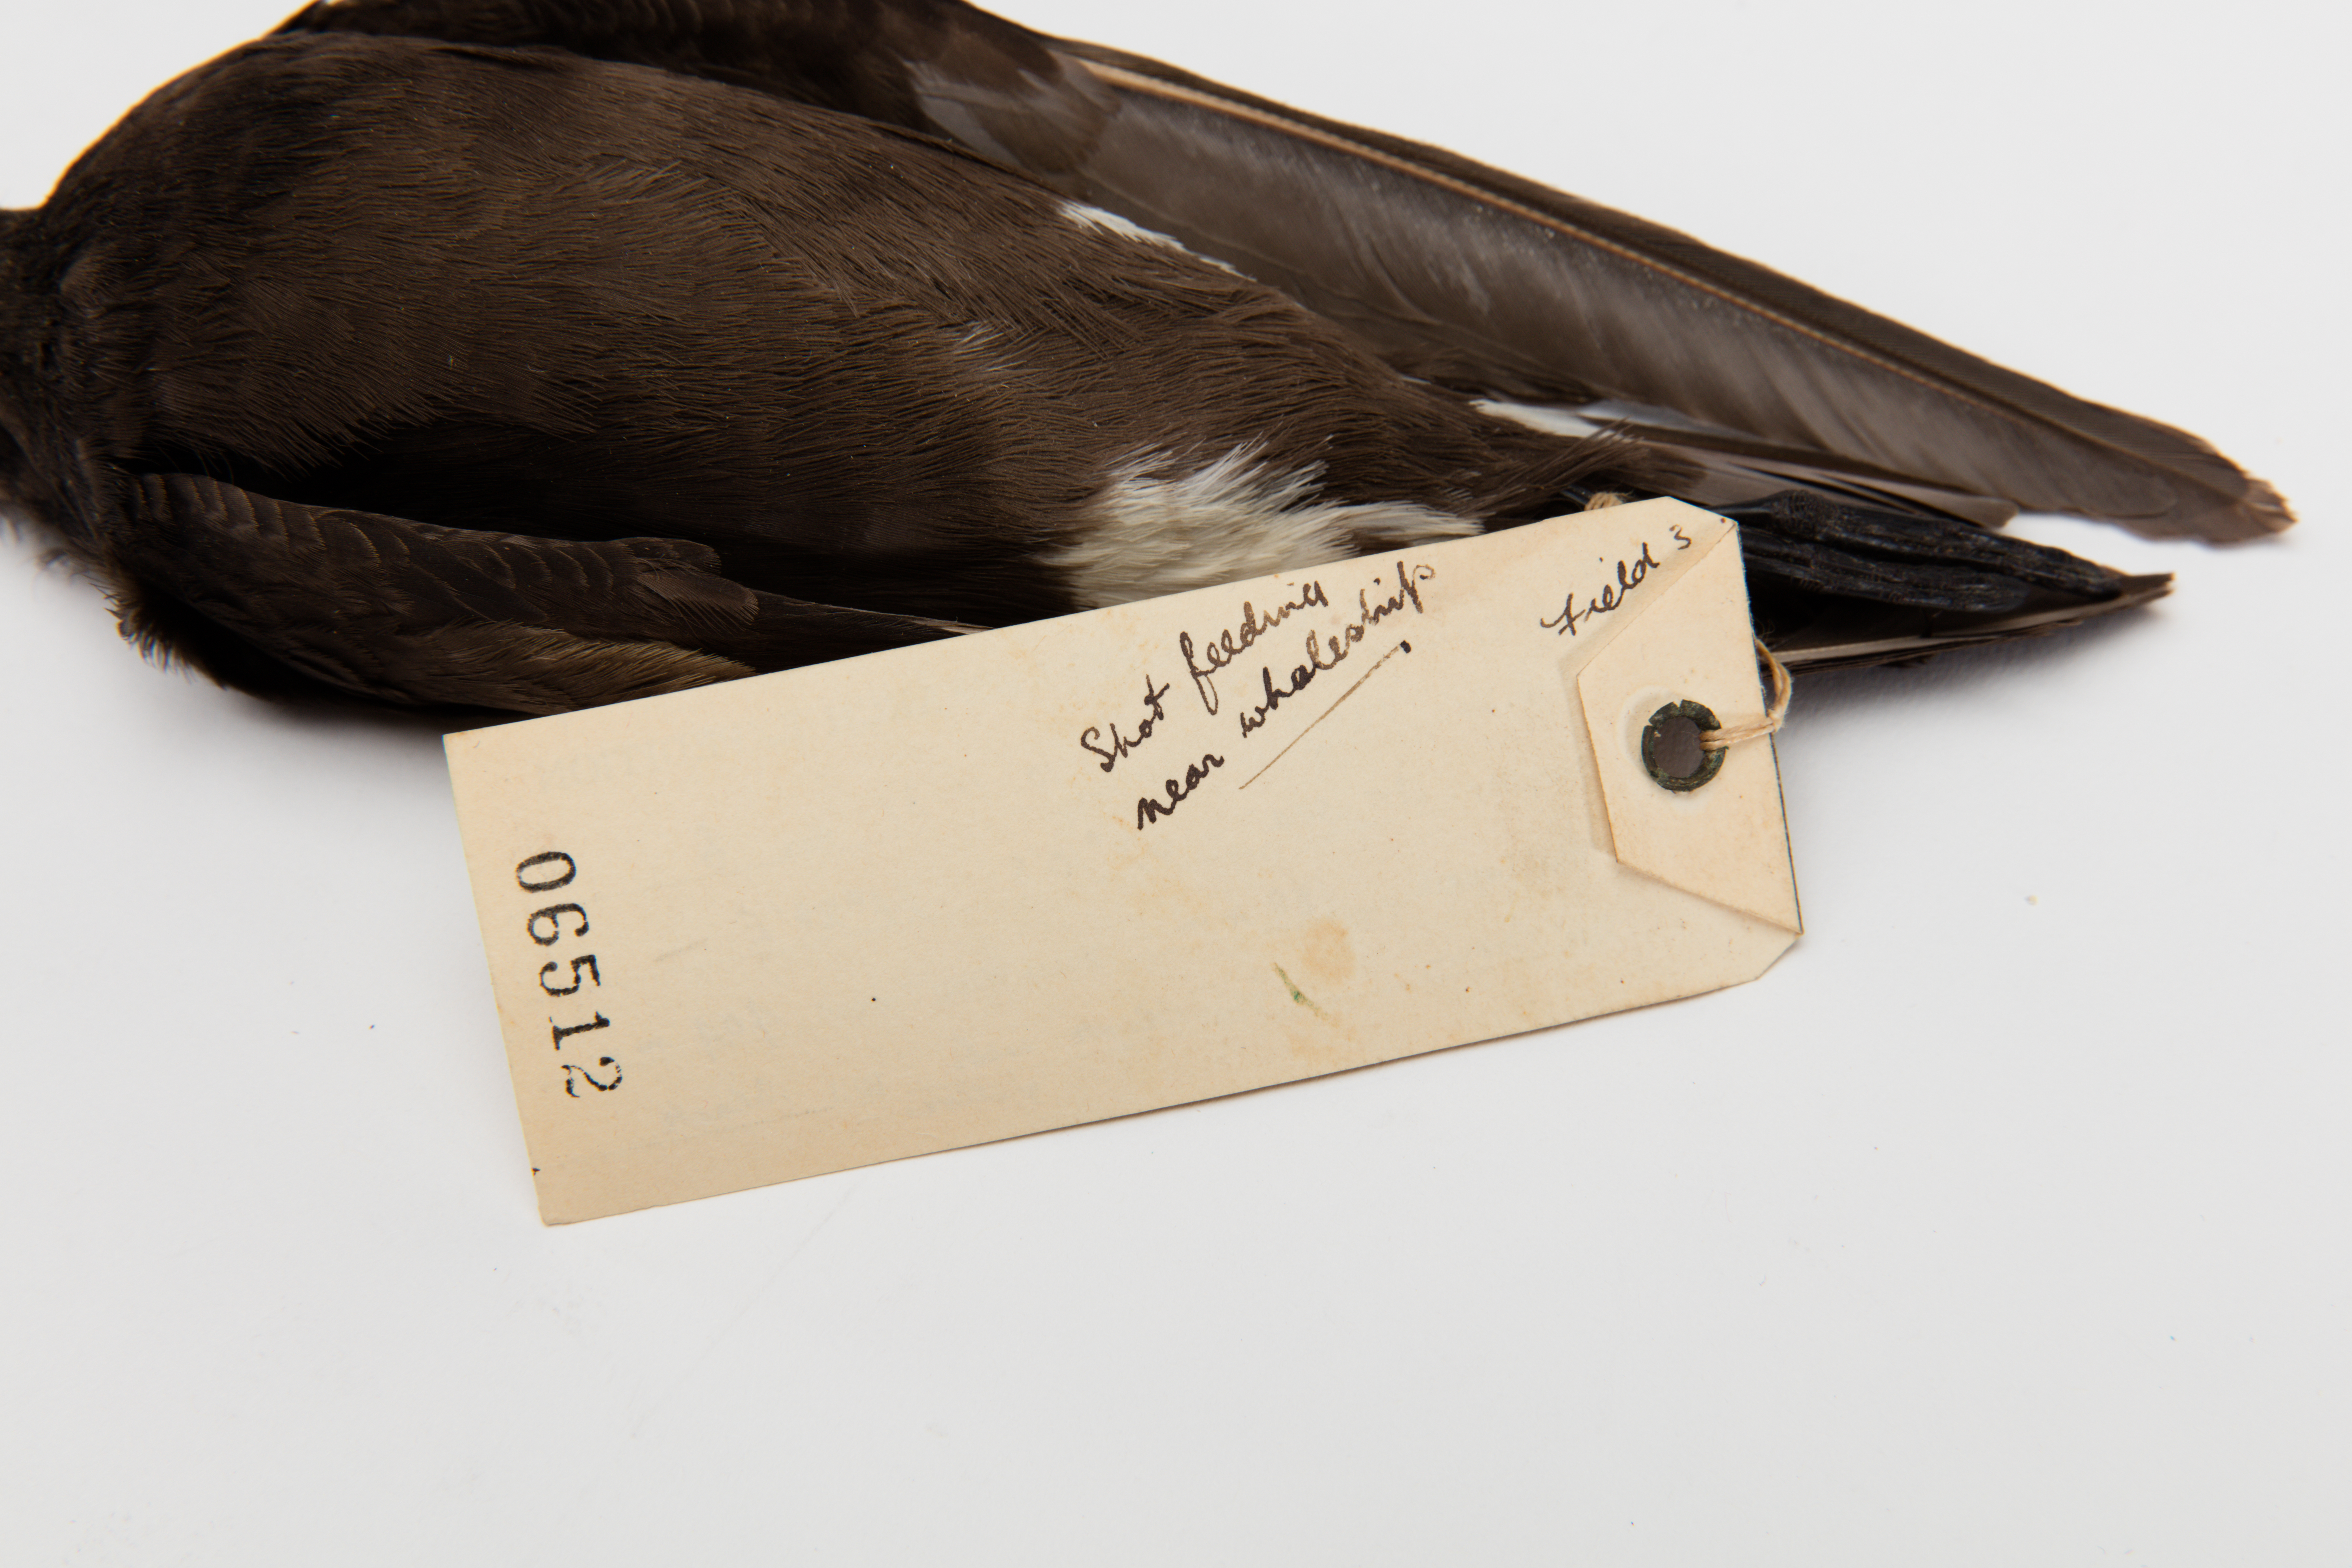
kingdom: Animalia
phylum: Chordata
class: Aves
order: Procellariiformes
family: Hydrobatidae
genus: Oceanites
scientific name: Oceanites oceanicus
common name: Wilson's storm petrel
